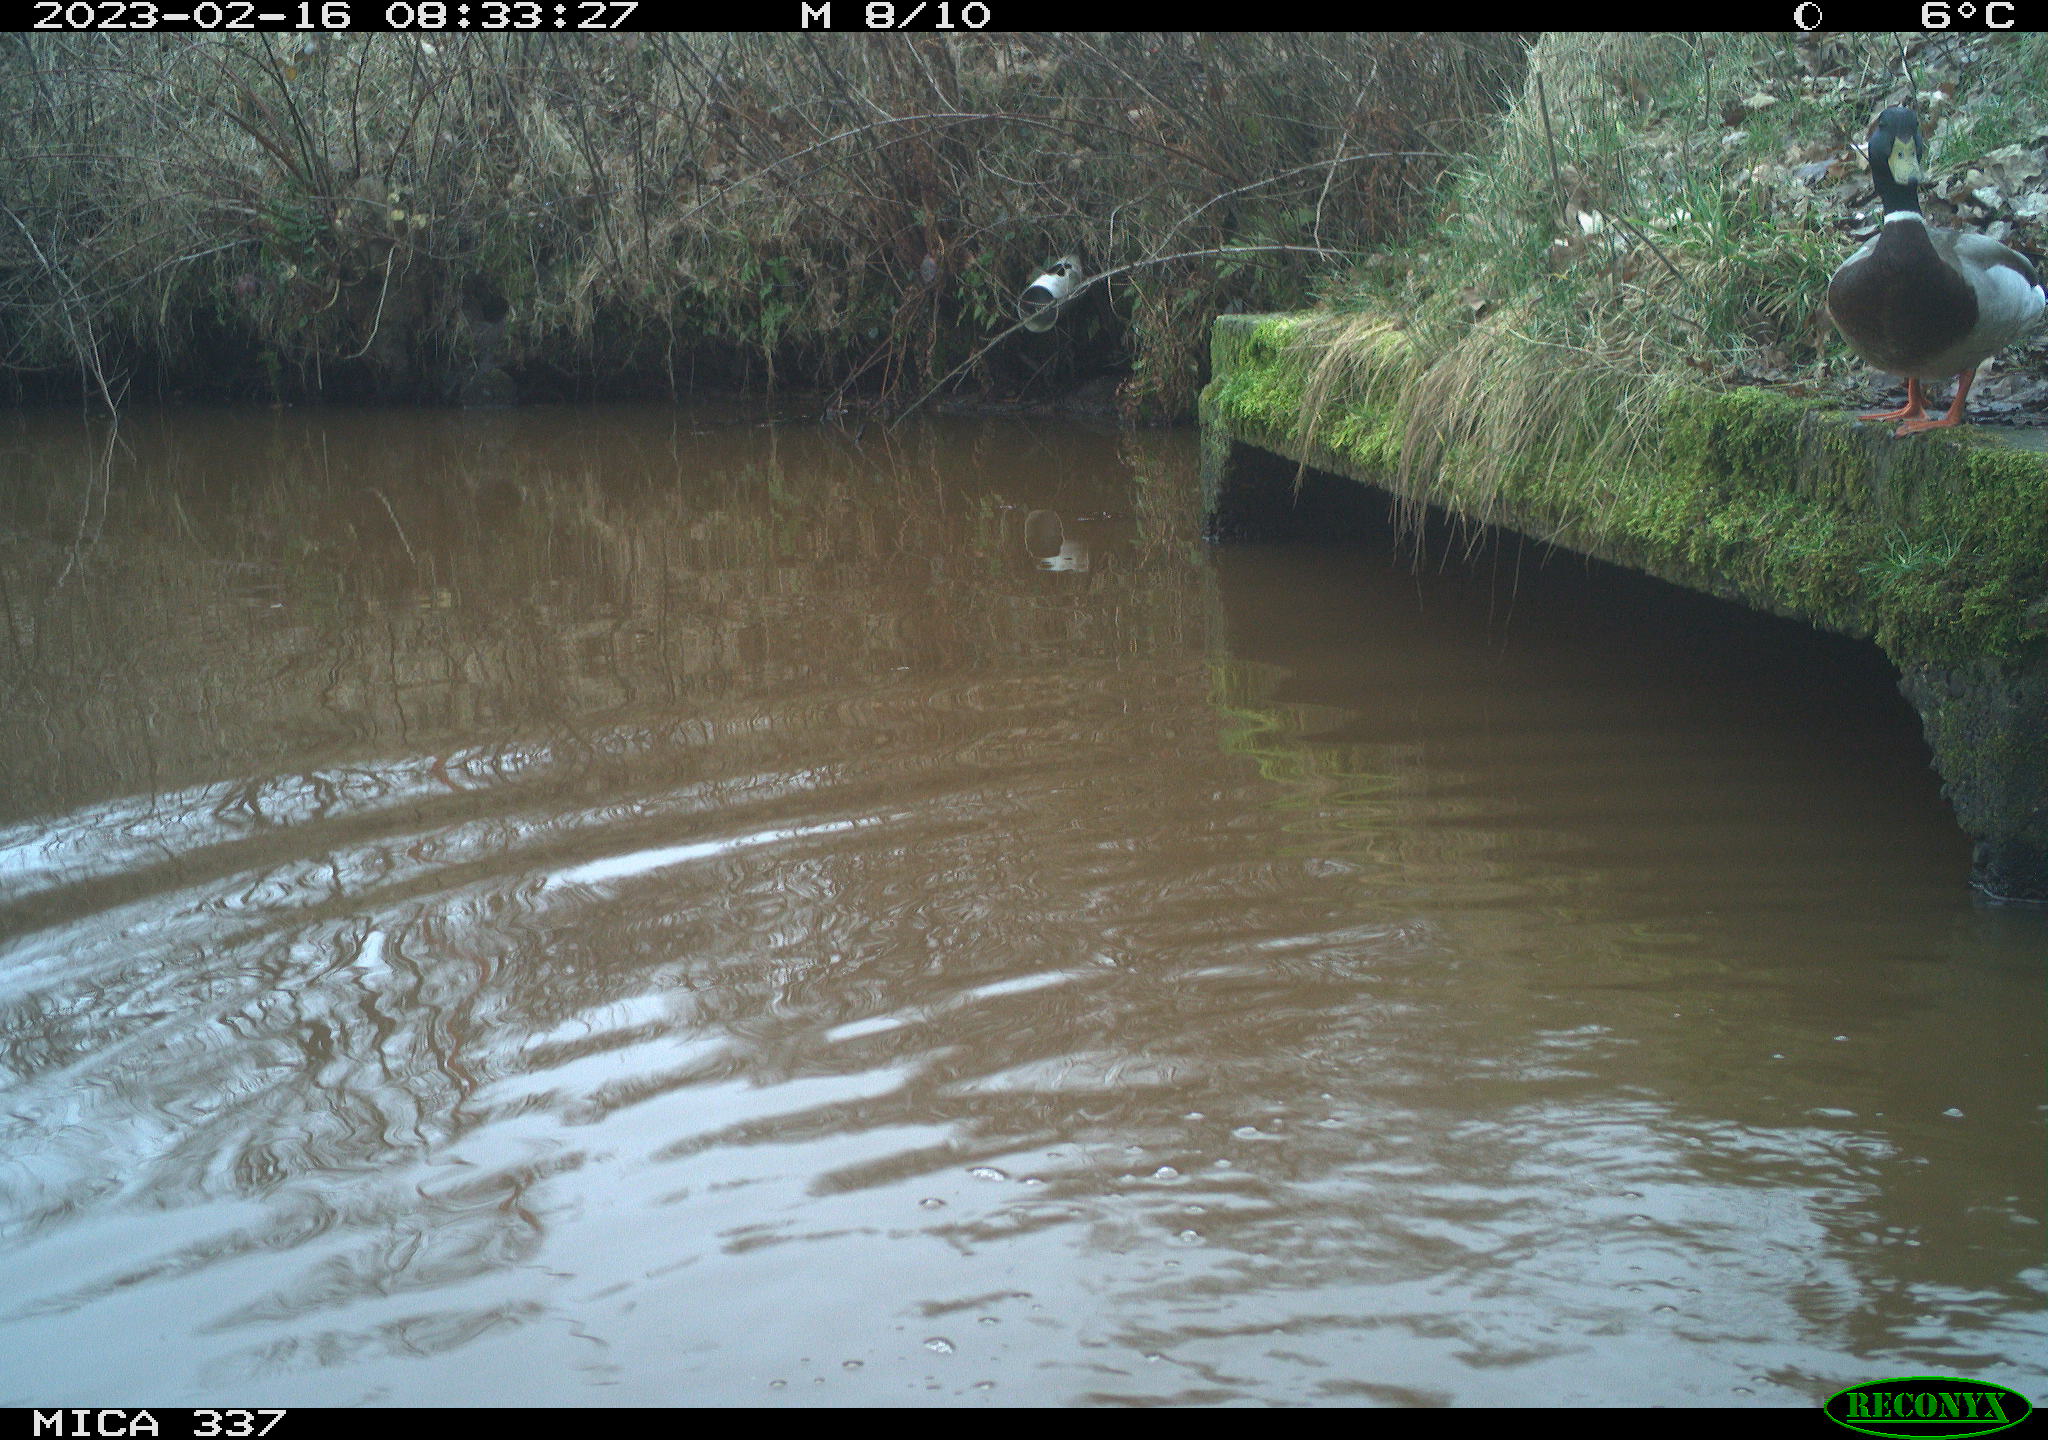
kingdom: Animalia
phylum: Chordata
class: Aves
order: Anseriformes
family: Anatidae
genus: Anas
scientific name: Anas
